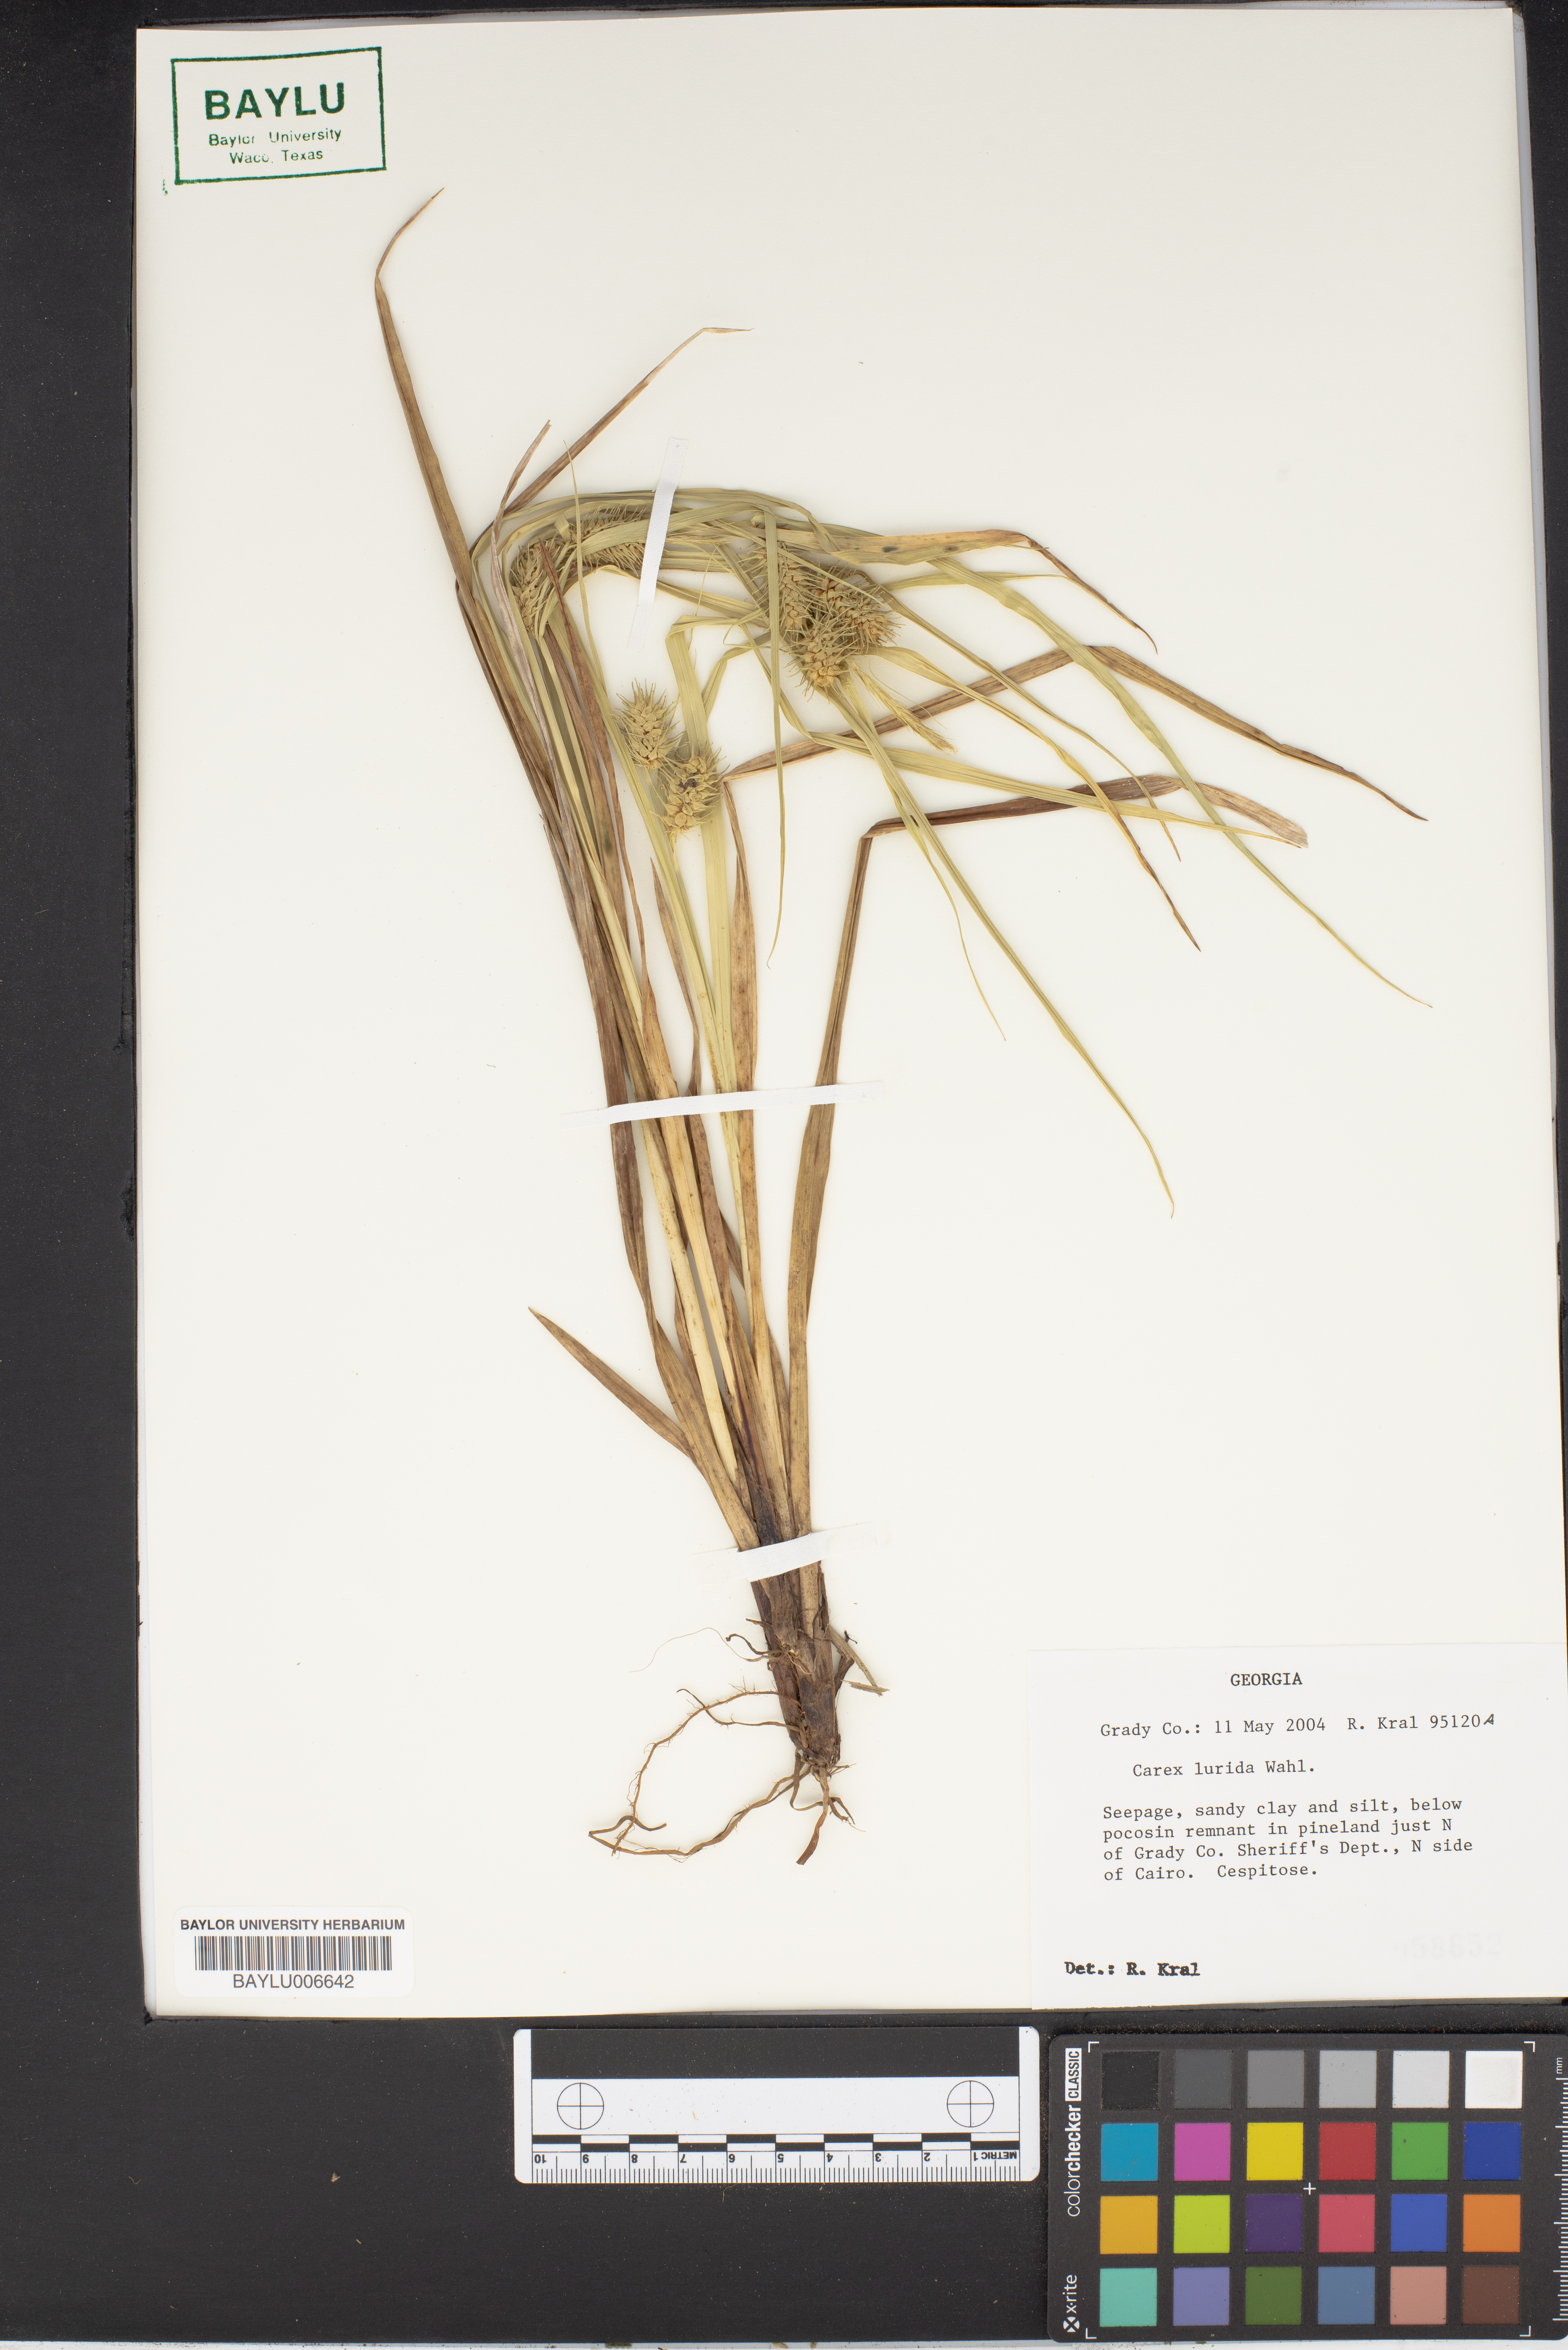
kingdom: Plantae
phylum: Tracheophyta
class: Liliopsida
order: Poales
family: Cyperaceae
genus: Carex
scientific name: Carex lurida
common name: Sallow sedge
